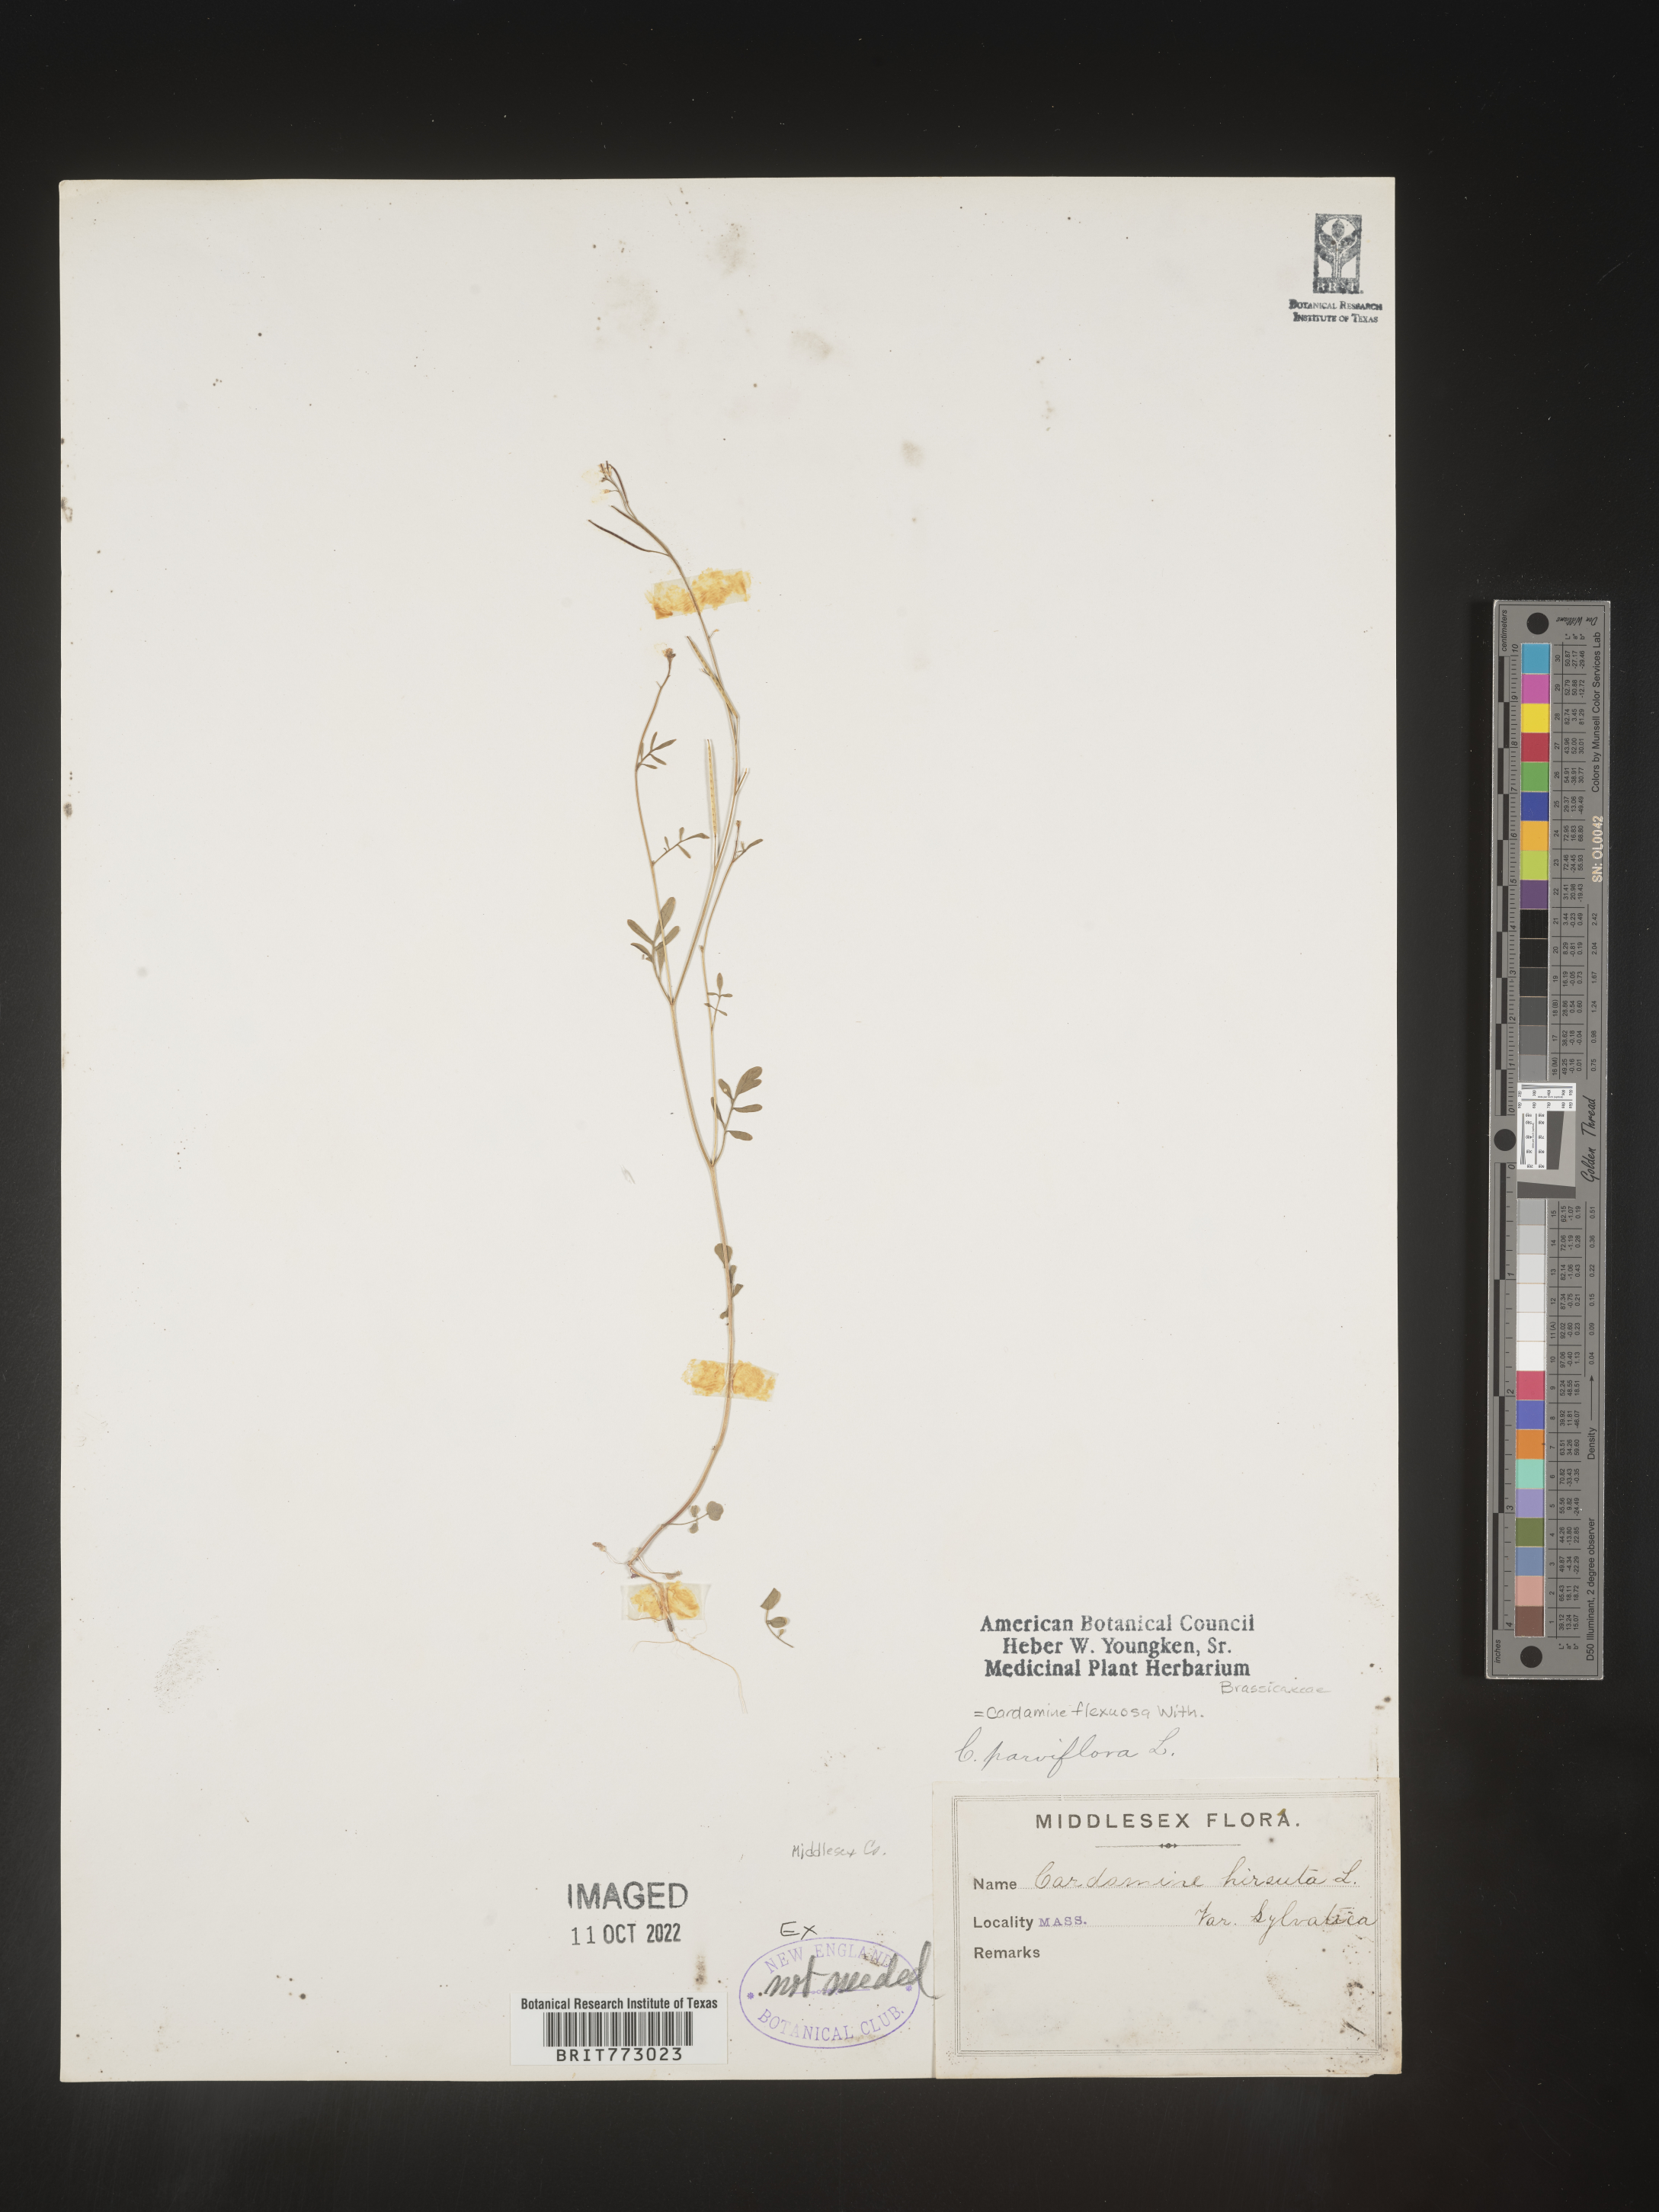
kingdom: Plantae
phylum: Tracheophyta
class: Magnoliopsida
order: Brassicales
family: Brassicaceae
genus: Cardamine
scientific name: Cardamine
